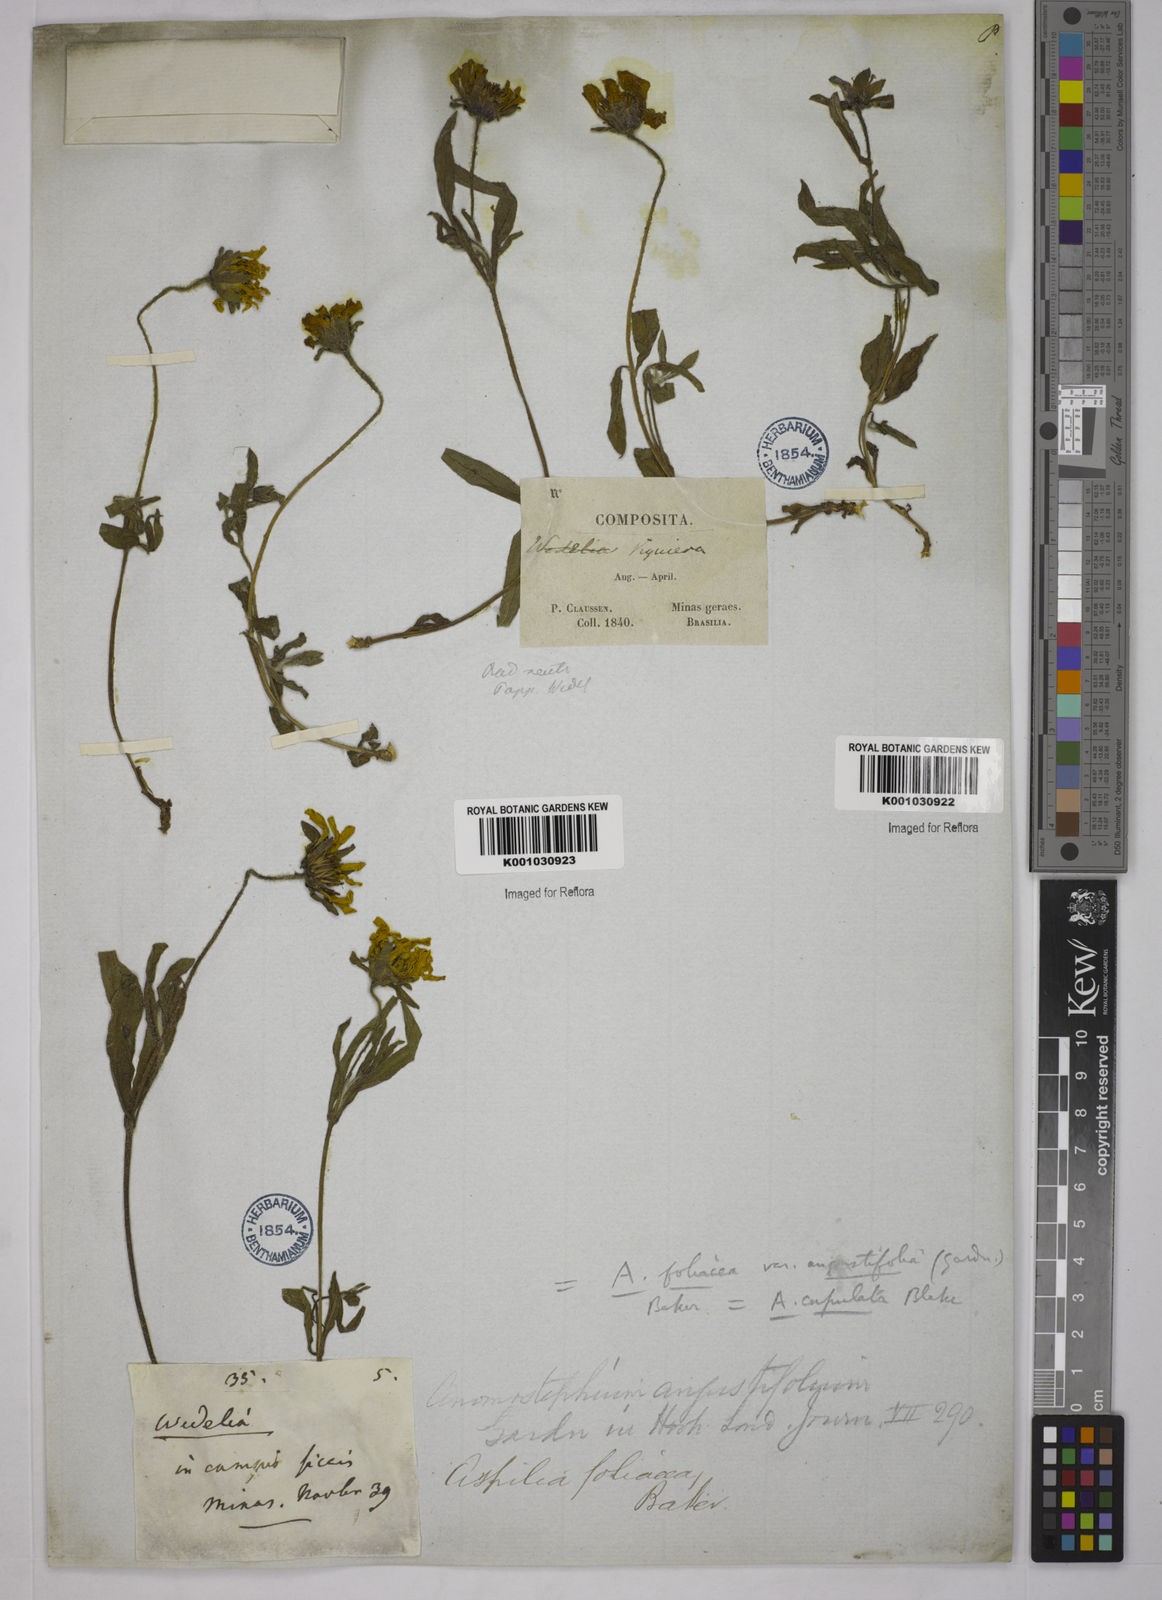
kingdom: Plantae
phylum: Tracheophyta
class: Magnoliopsida
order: Asterales
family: Asteraceae
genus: Wedelia
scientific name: Wedelia foliacea
